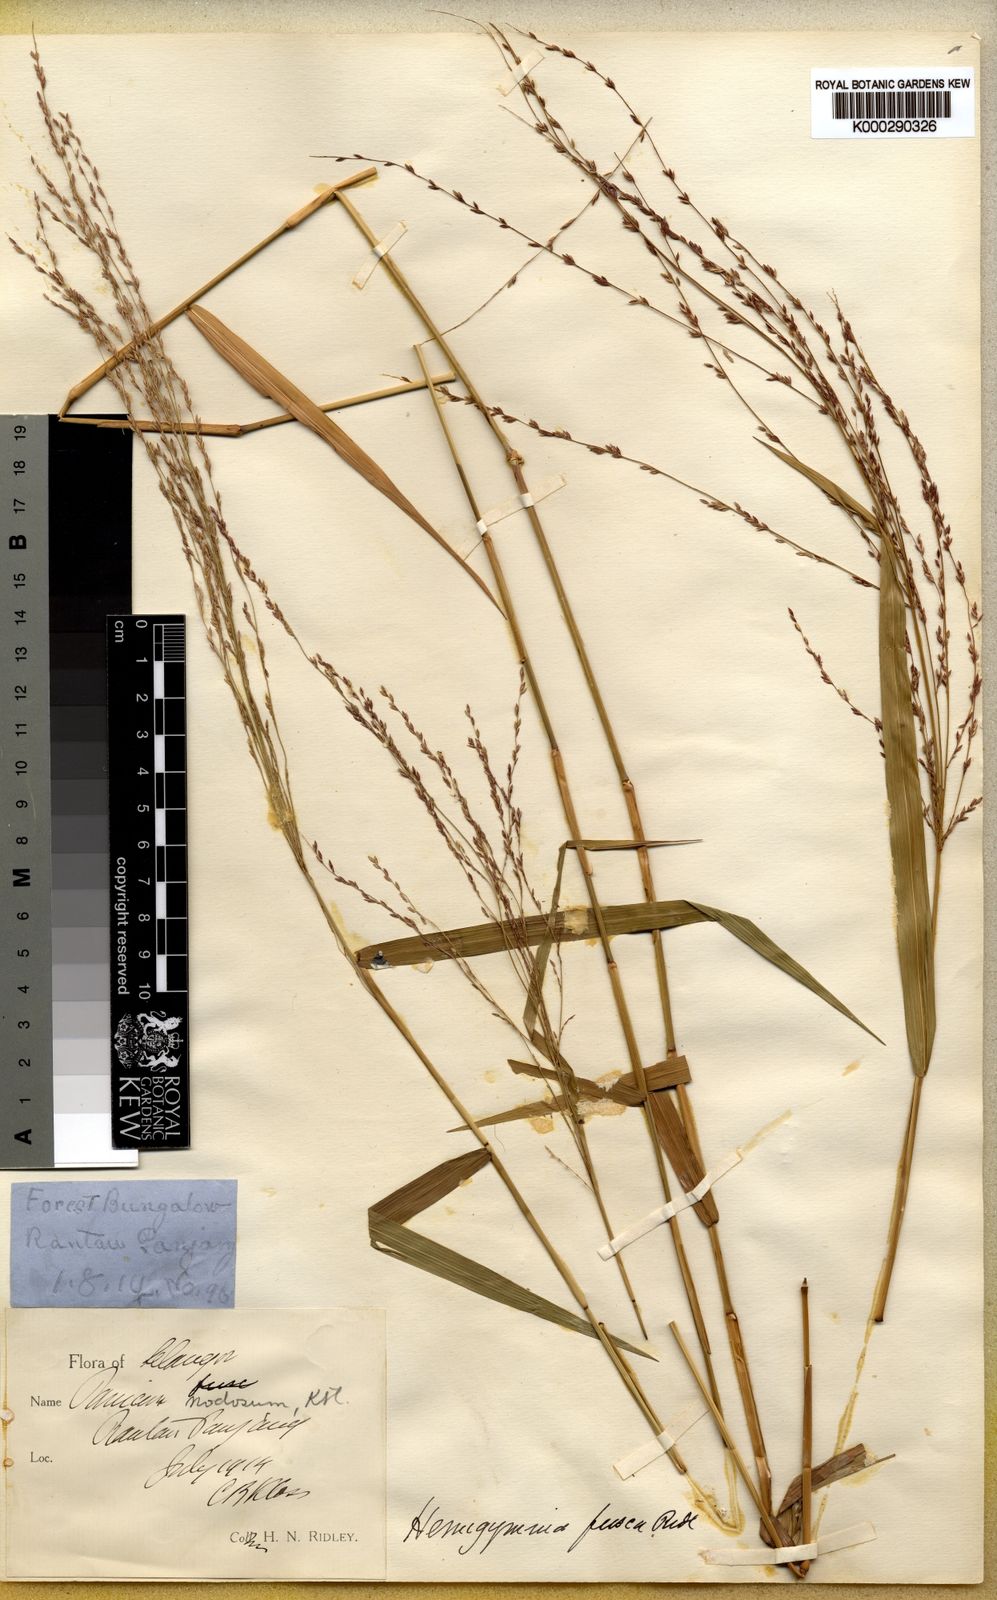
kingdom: Plantae
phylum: Tracheophyta
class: Liliopsida
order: Poales
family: Poaceae
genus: Ottochloa
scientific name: Ottochloa nodosa
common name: Slender-panic grass
